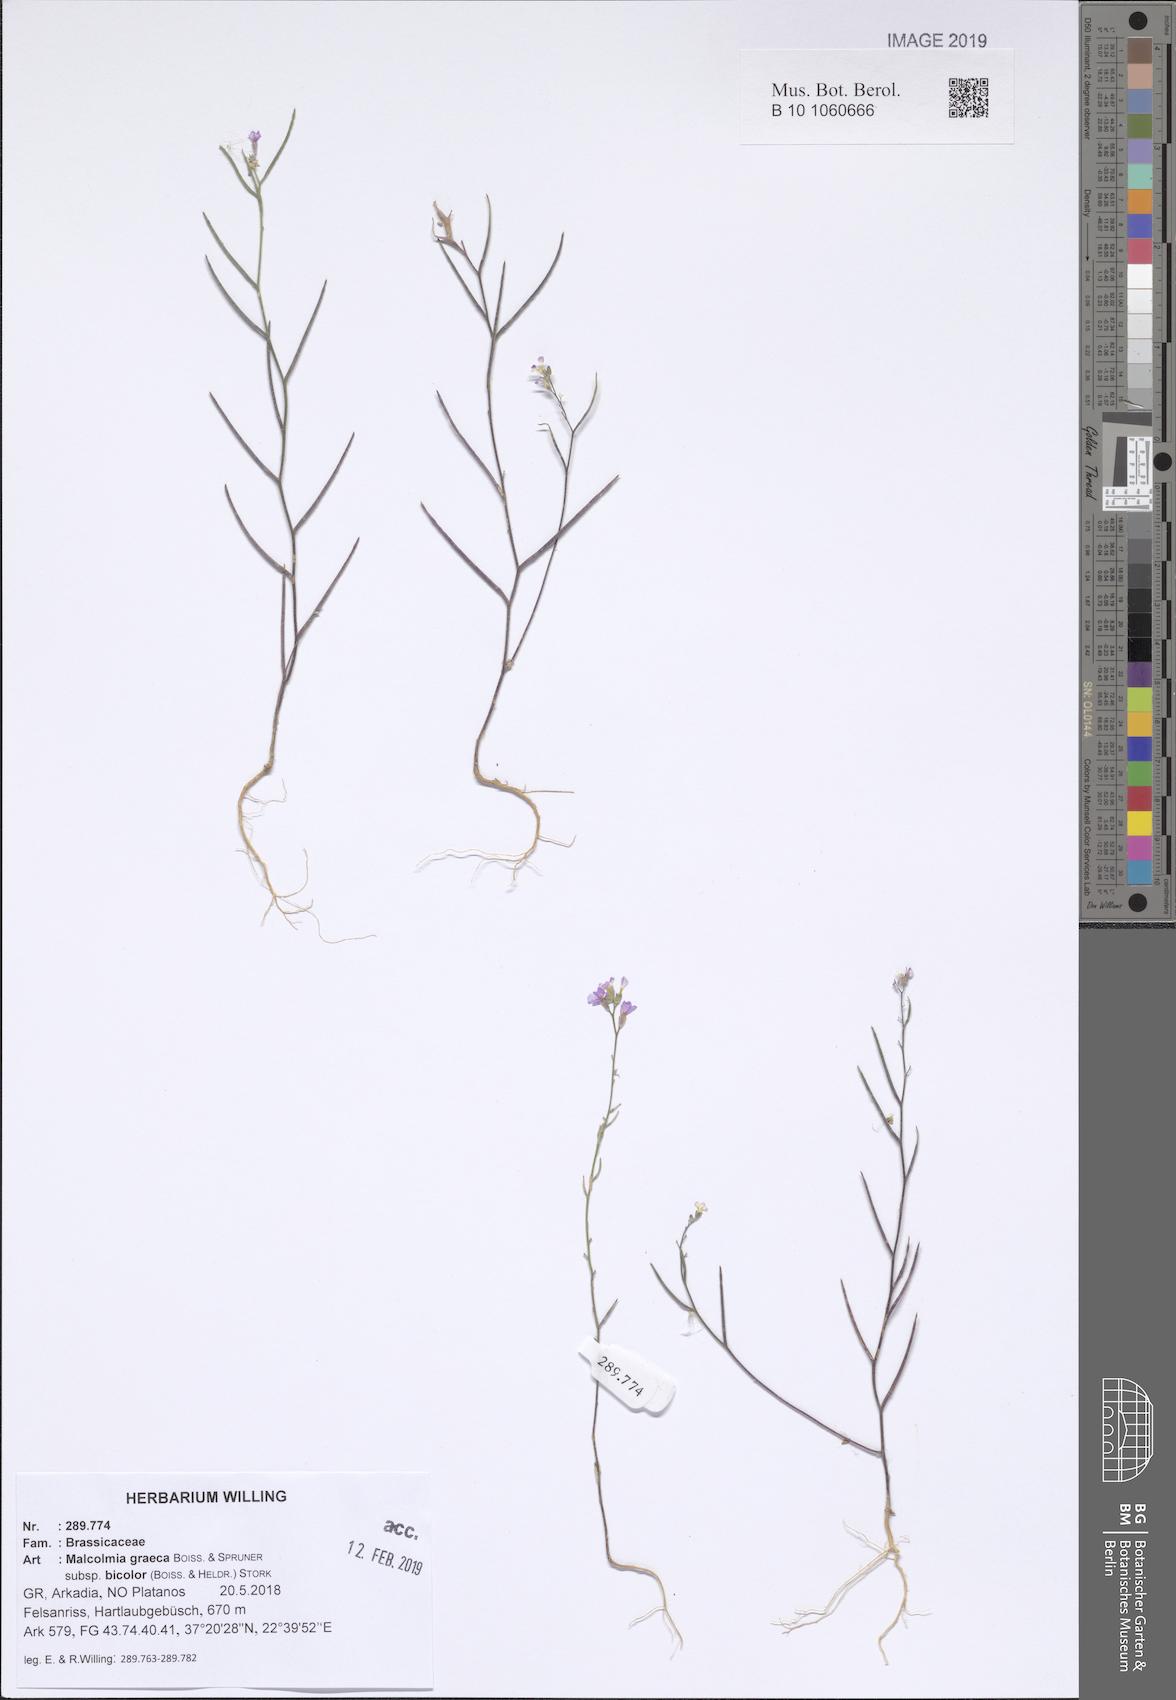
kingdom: Plantae
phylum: Tracheophyta
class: Magnoliopsida
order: Brassicales
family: Brassicaceae
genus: Malcolmia
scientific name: Malcolmia graeca
